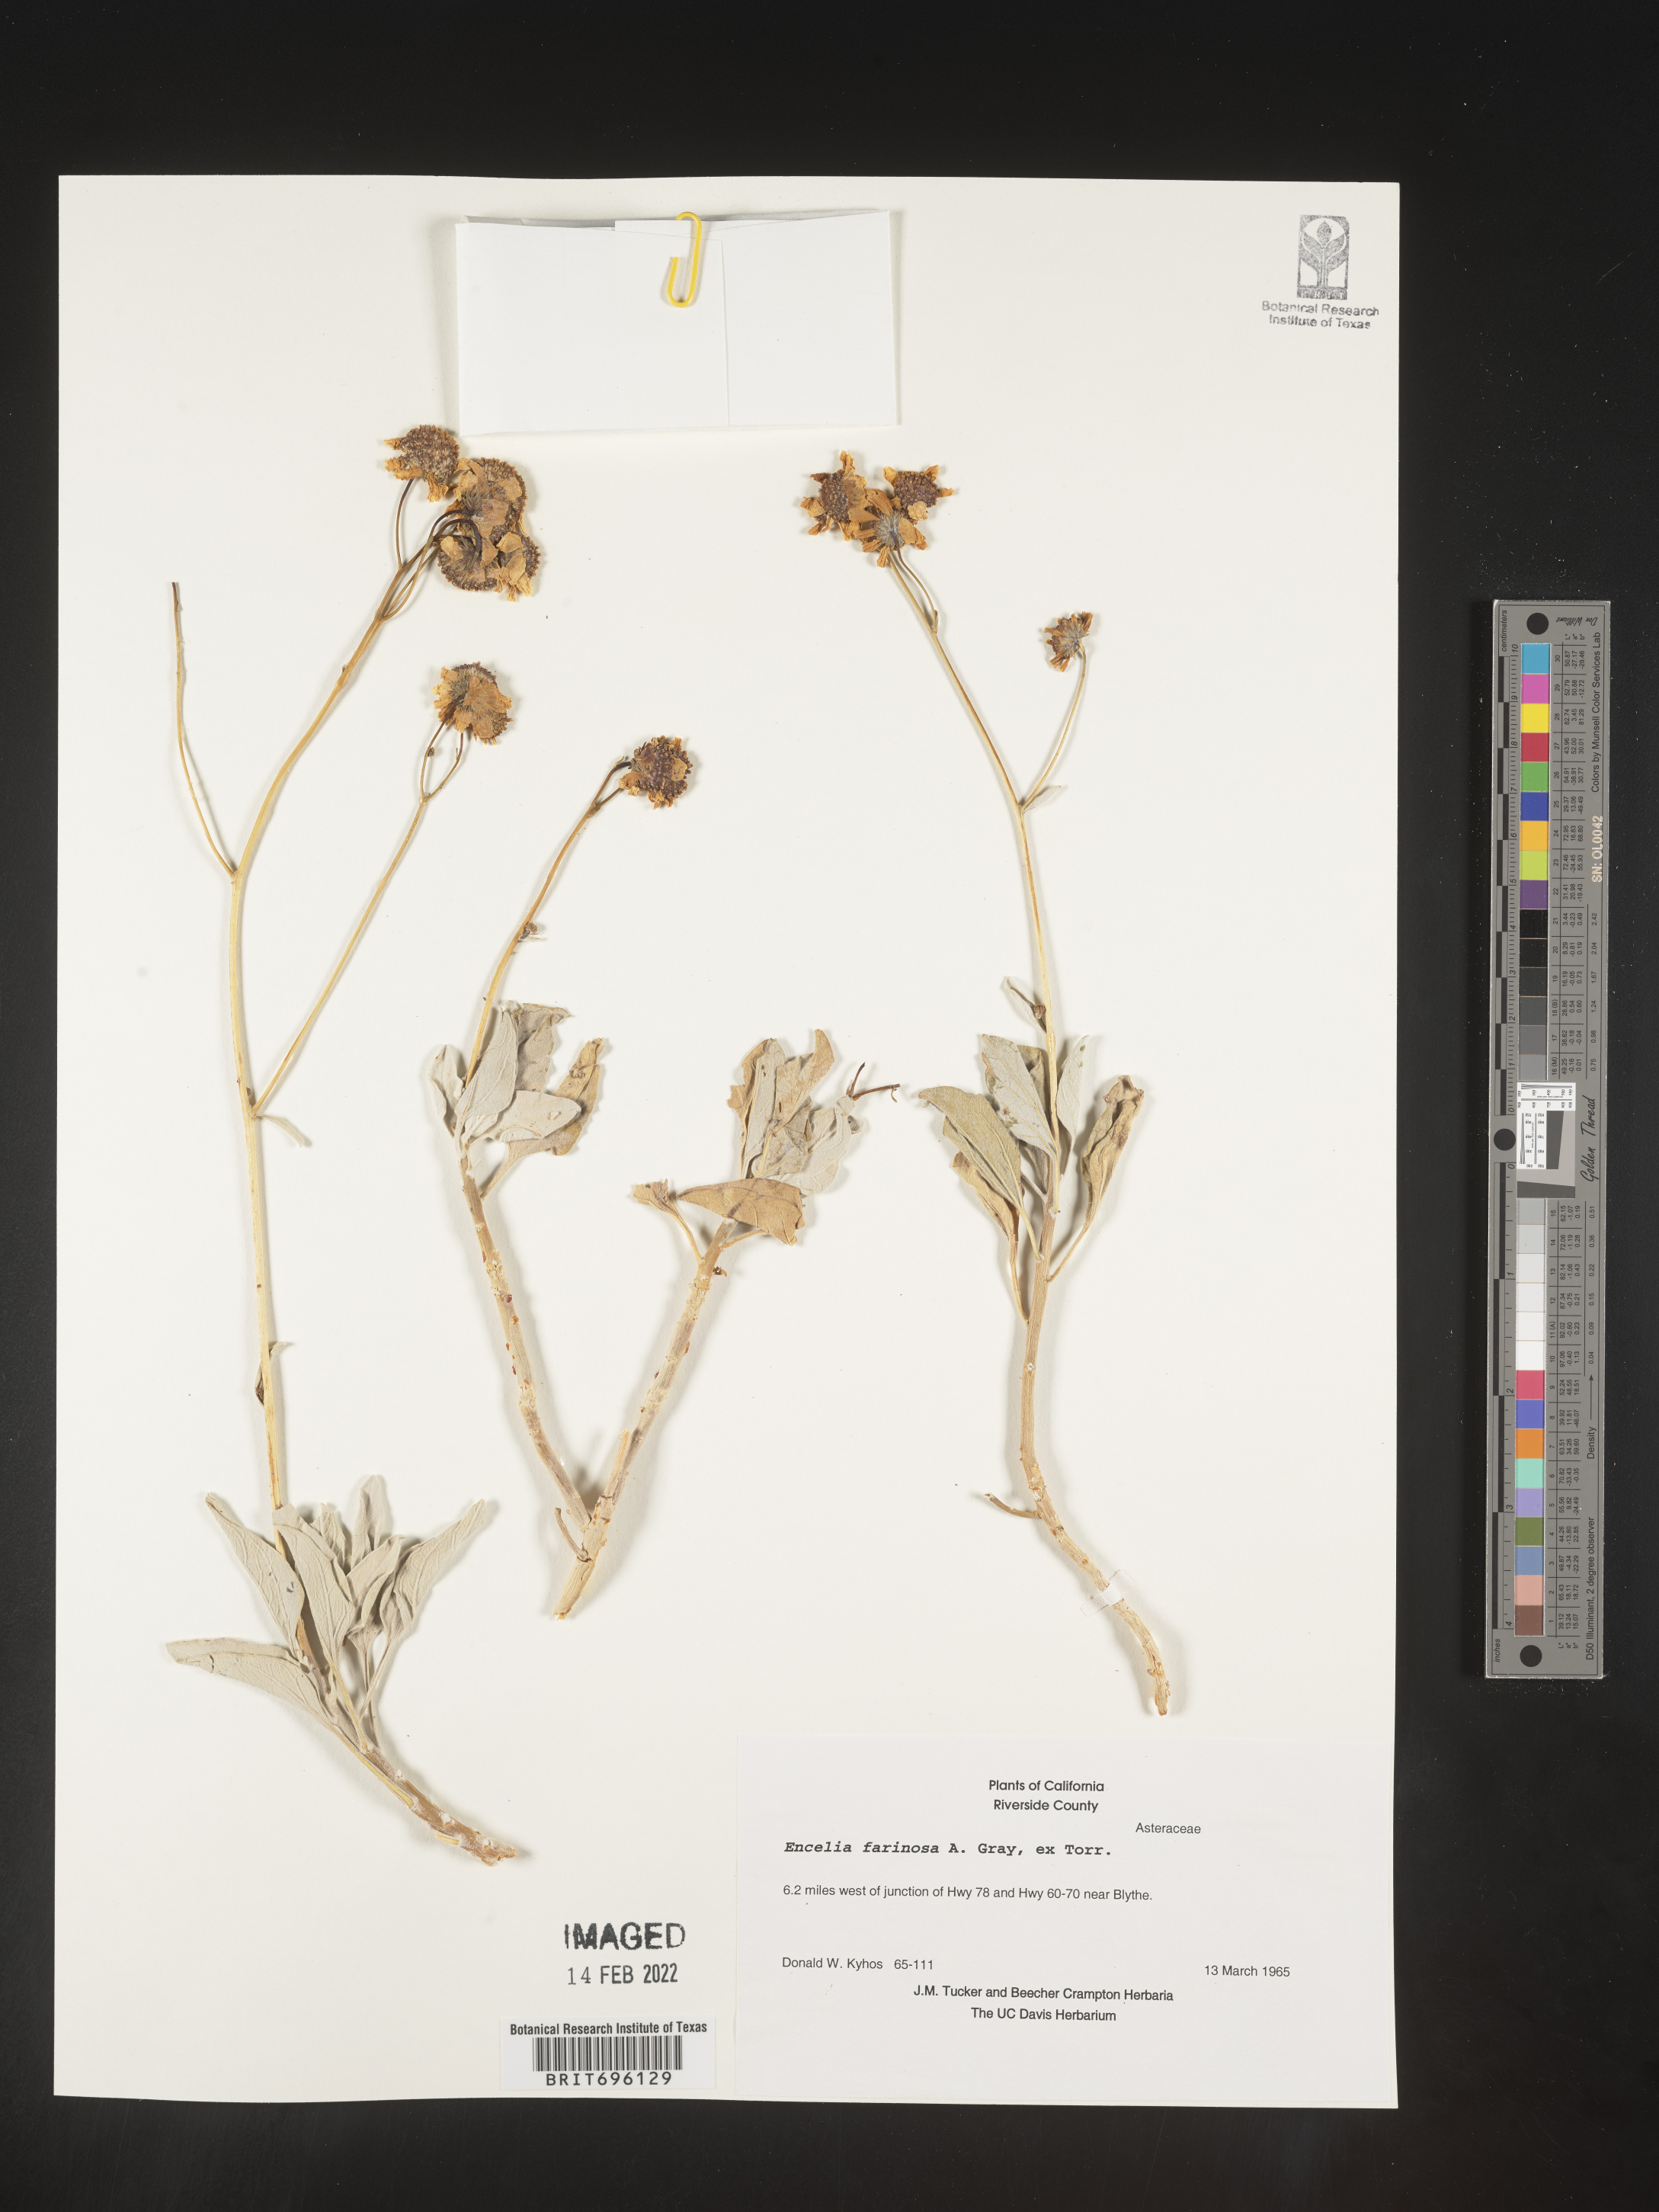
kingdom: Plantae
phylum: Tracheophyta
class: Magnoliopsida
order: Asterales
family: Asteraceae
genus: Encelia
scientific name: Encelia farinosa
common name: Brittlebush
